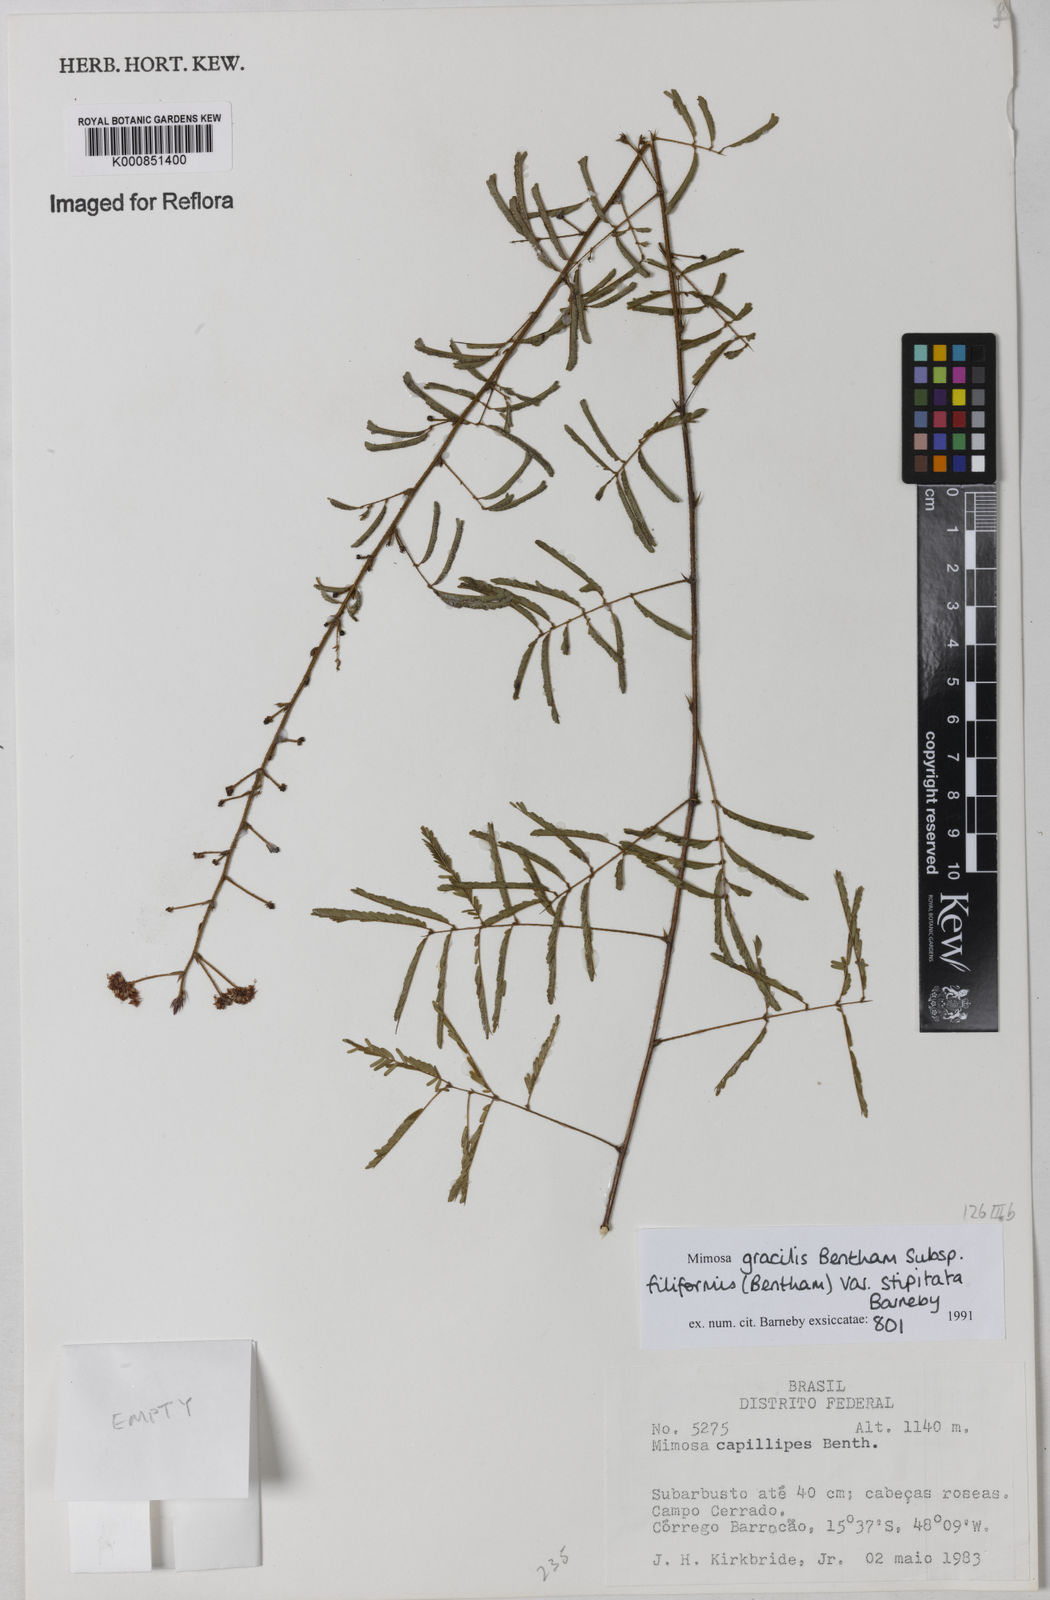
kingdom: Plantae
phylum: Tracheophyta
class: Magnoliopsida
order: Fabales
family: Fabaceae
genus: Mimosa
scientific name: Mimosa gracilis
